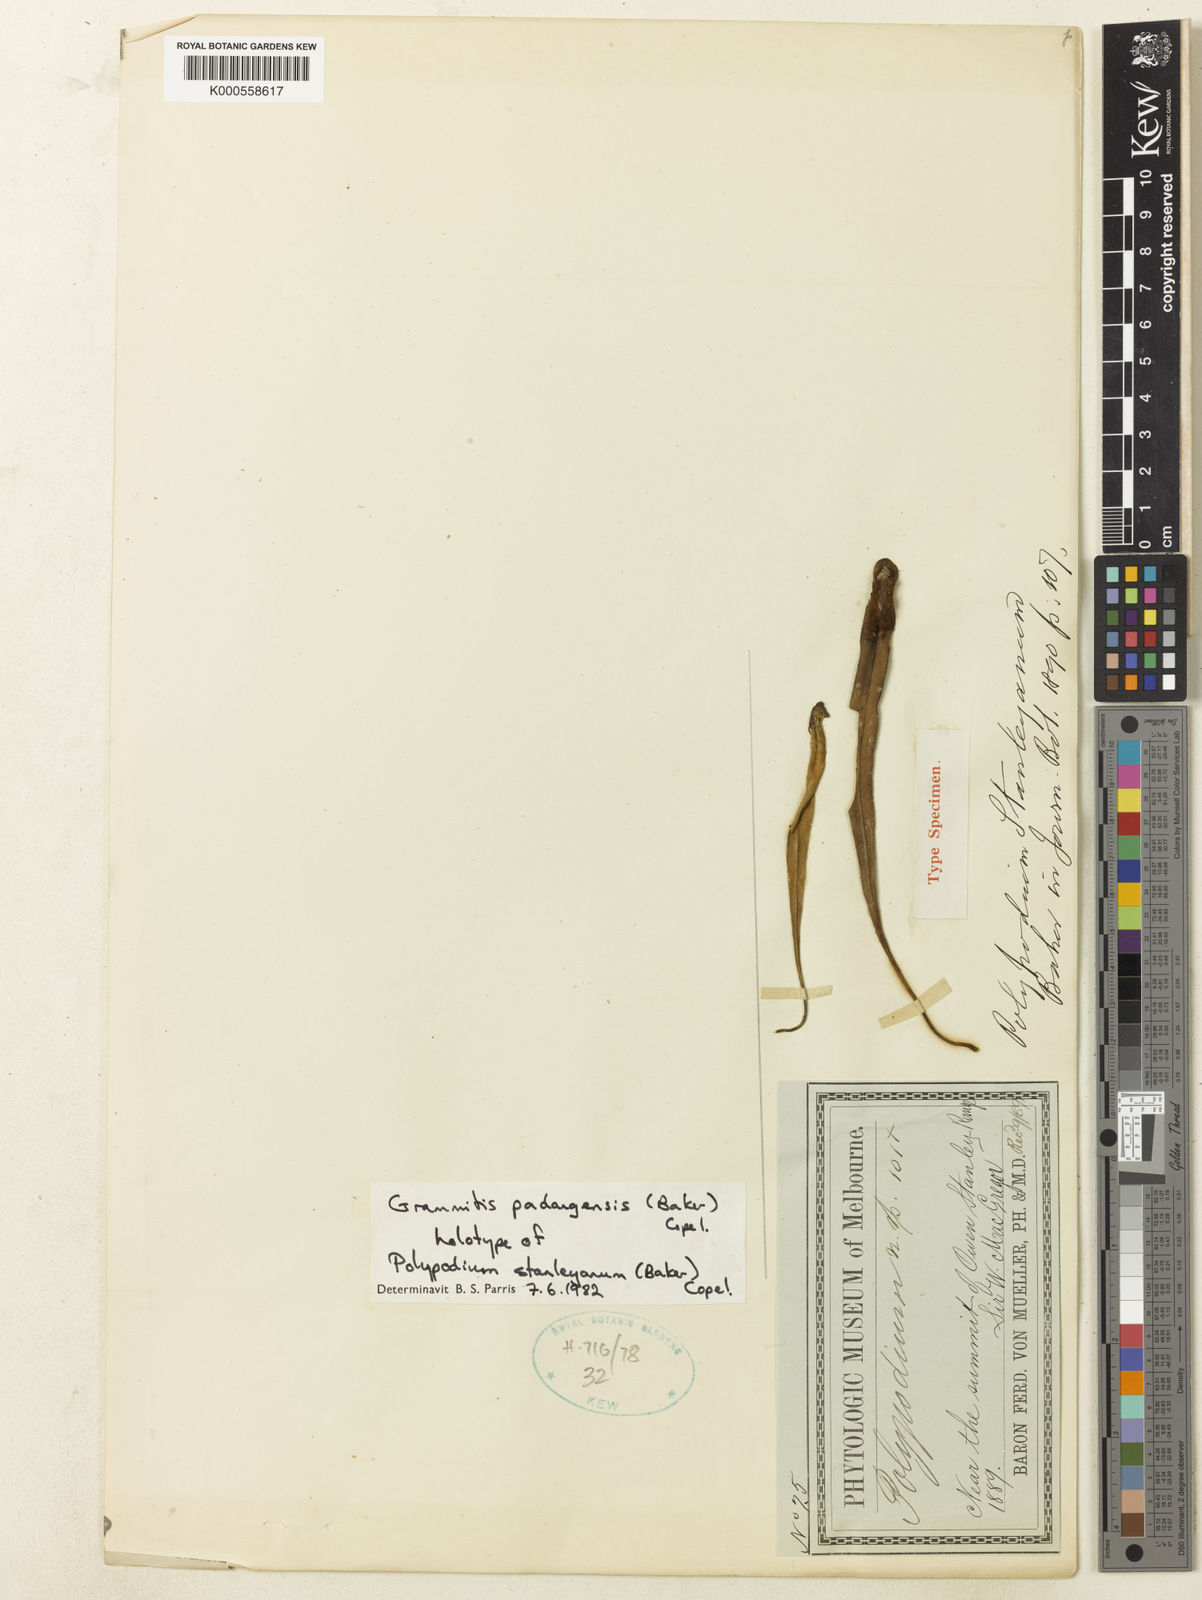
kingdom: Plantae
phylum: Tracheophyta
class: Polypodiopsida
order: Polypodiales
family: Polypodiaceae
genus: Oreogrammitis
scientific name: Oreogrammitis padangensis
